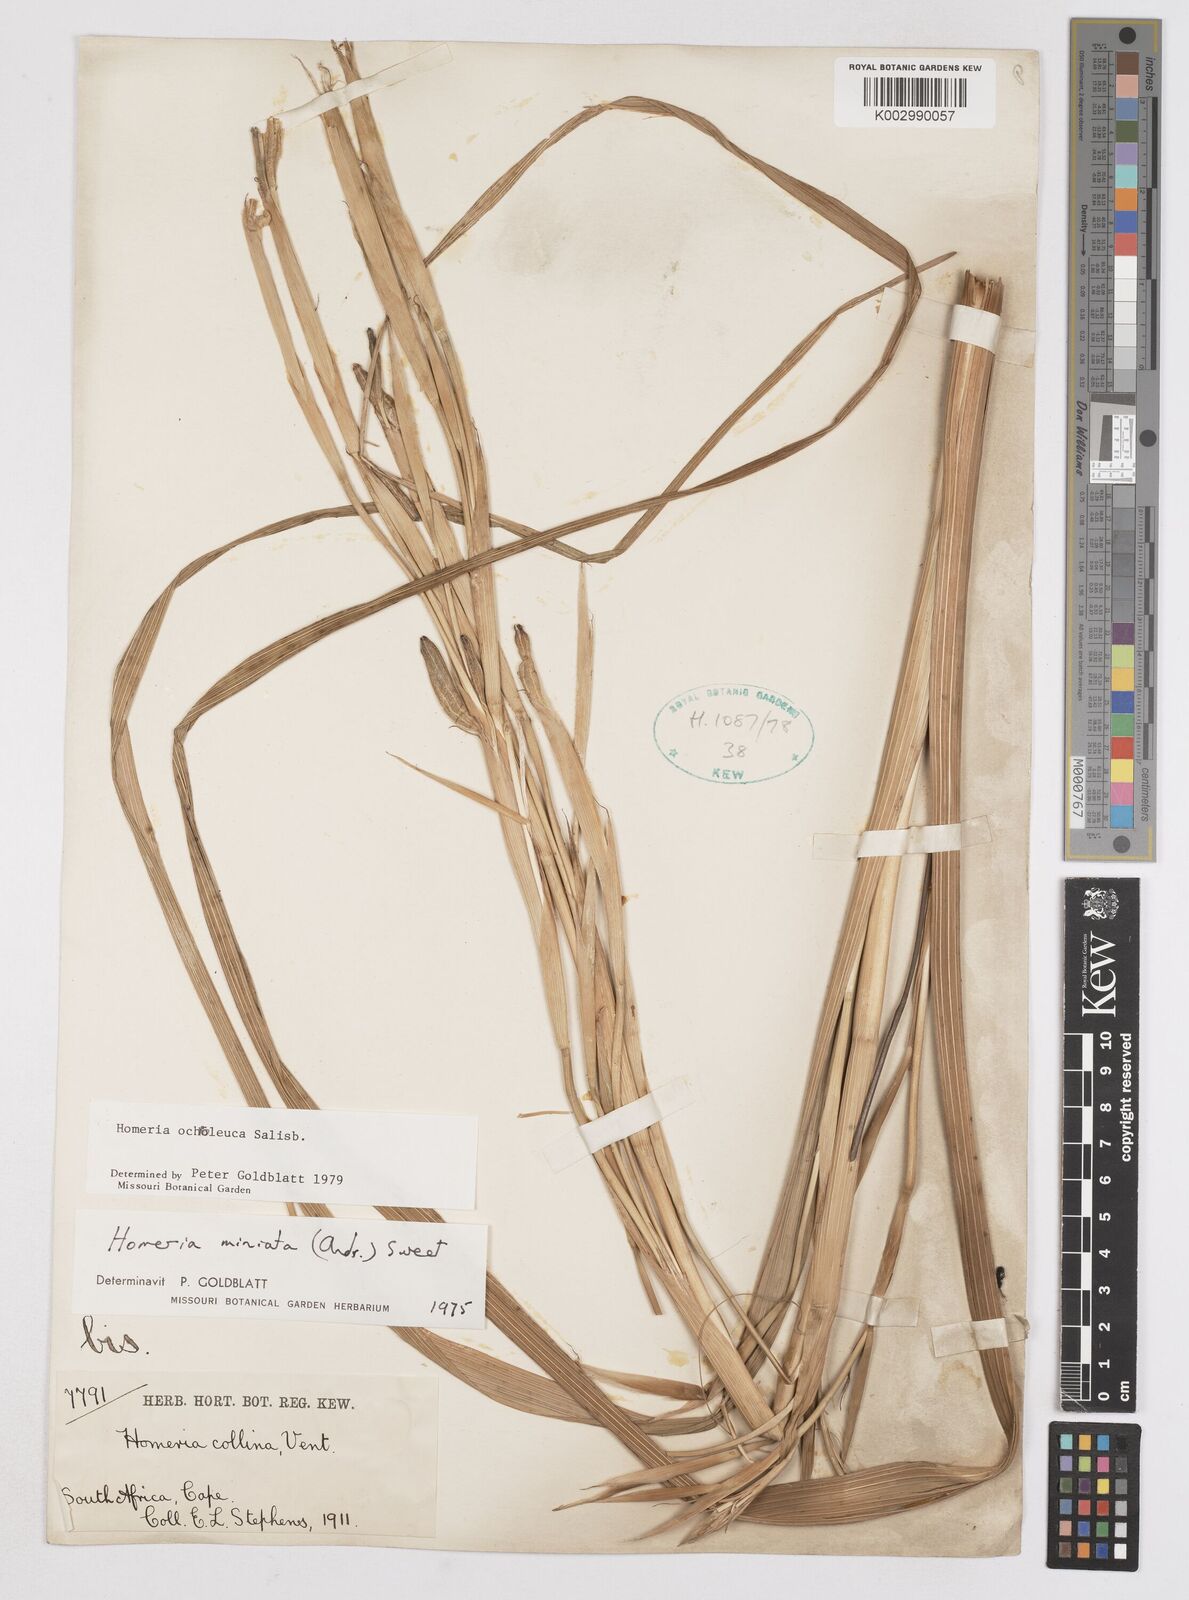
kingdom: Plantae
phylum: Tracheophyta
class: Liliopsida
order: Asparagales
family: Iridaceae
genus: Moraea
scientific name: Moraea ochroleuca
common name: Red tulp
